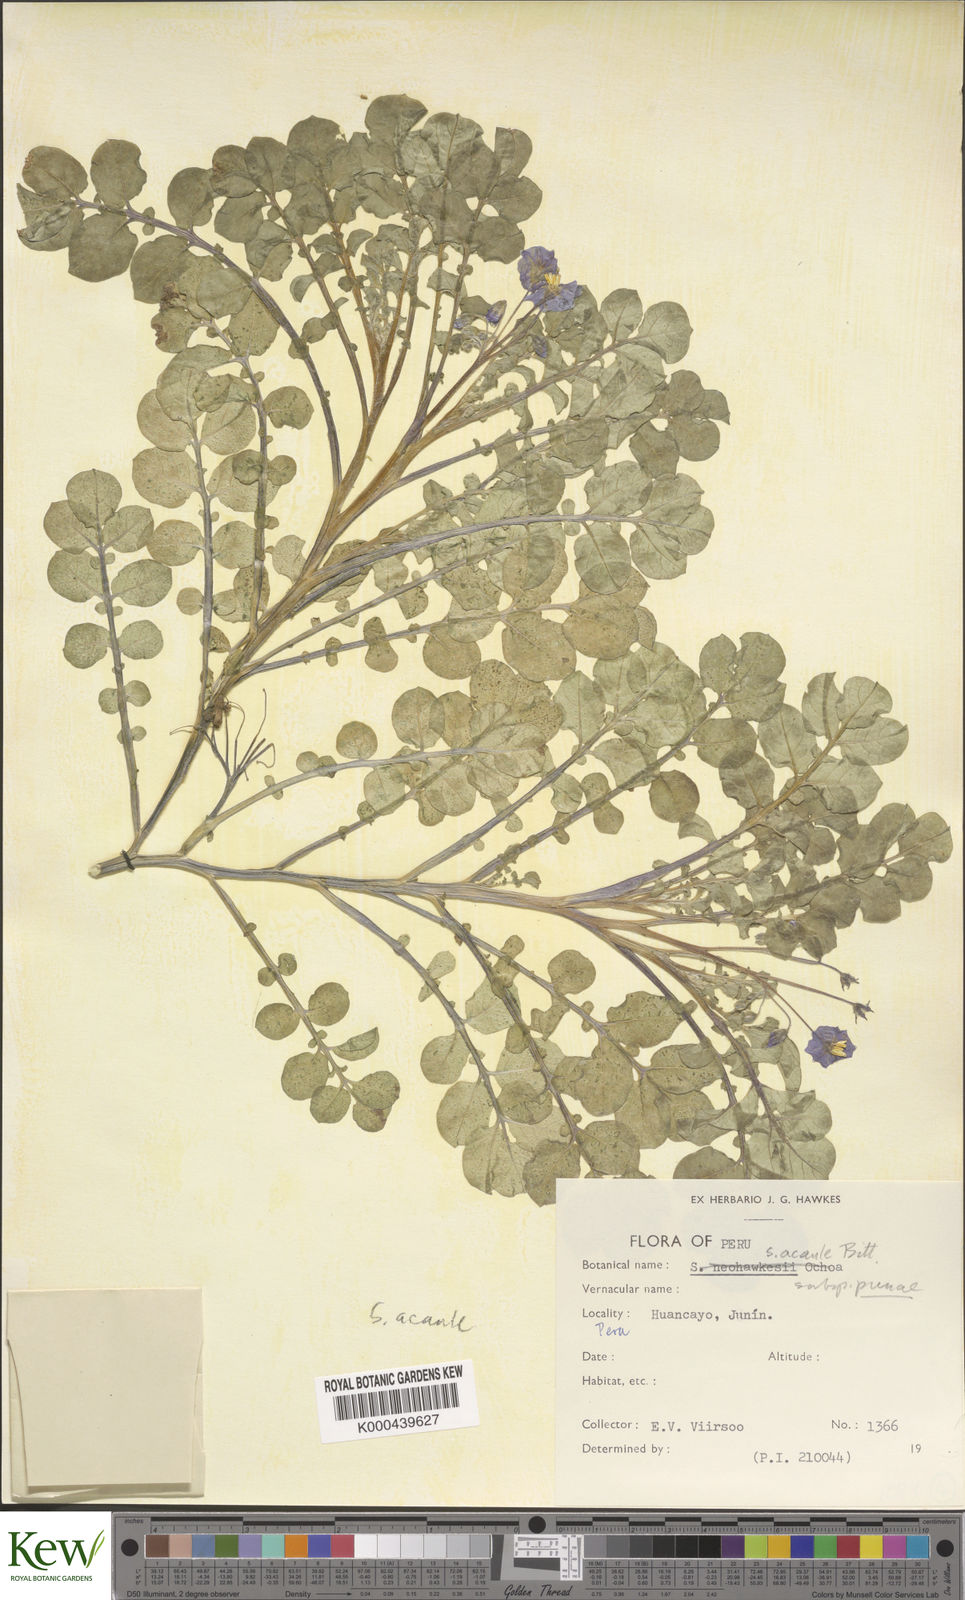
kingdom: Plantae
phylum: Tracheophyta
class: Magnoliopsida
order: Solanales
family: Solanaceae
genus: Solanum
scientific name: Solanum candolleanum
